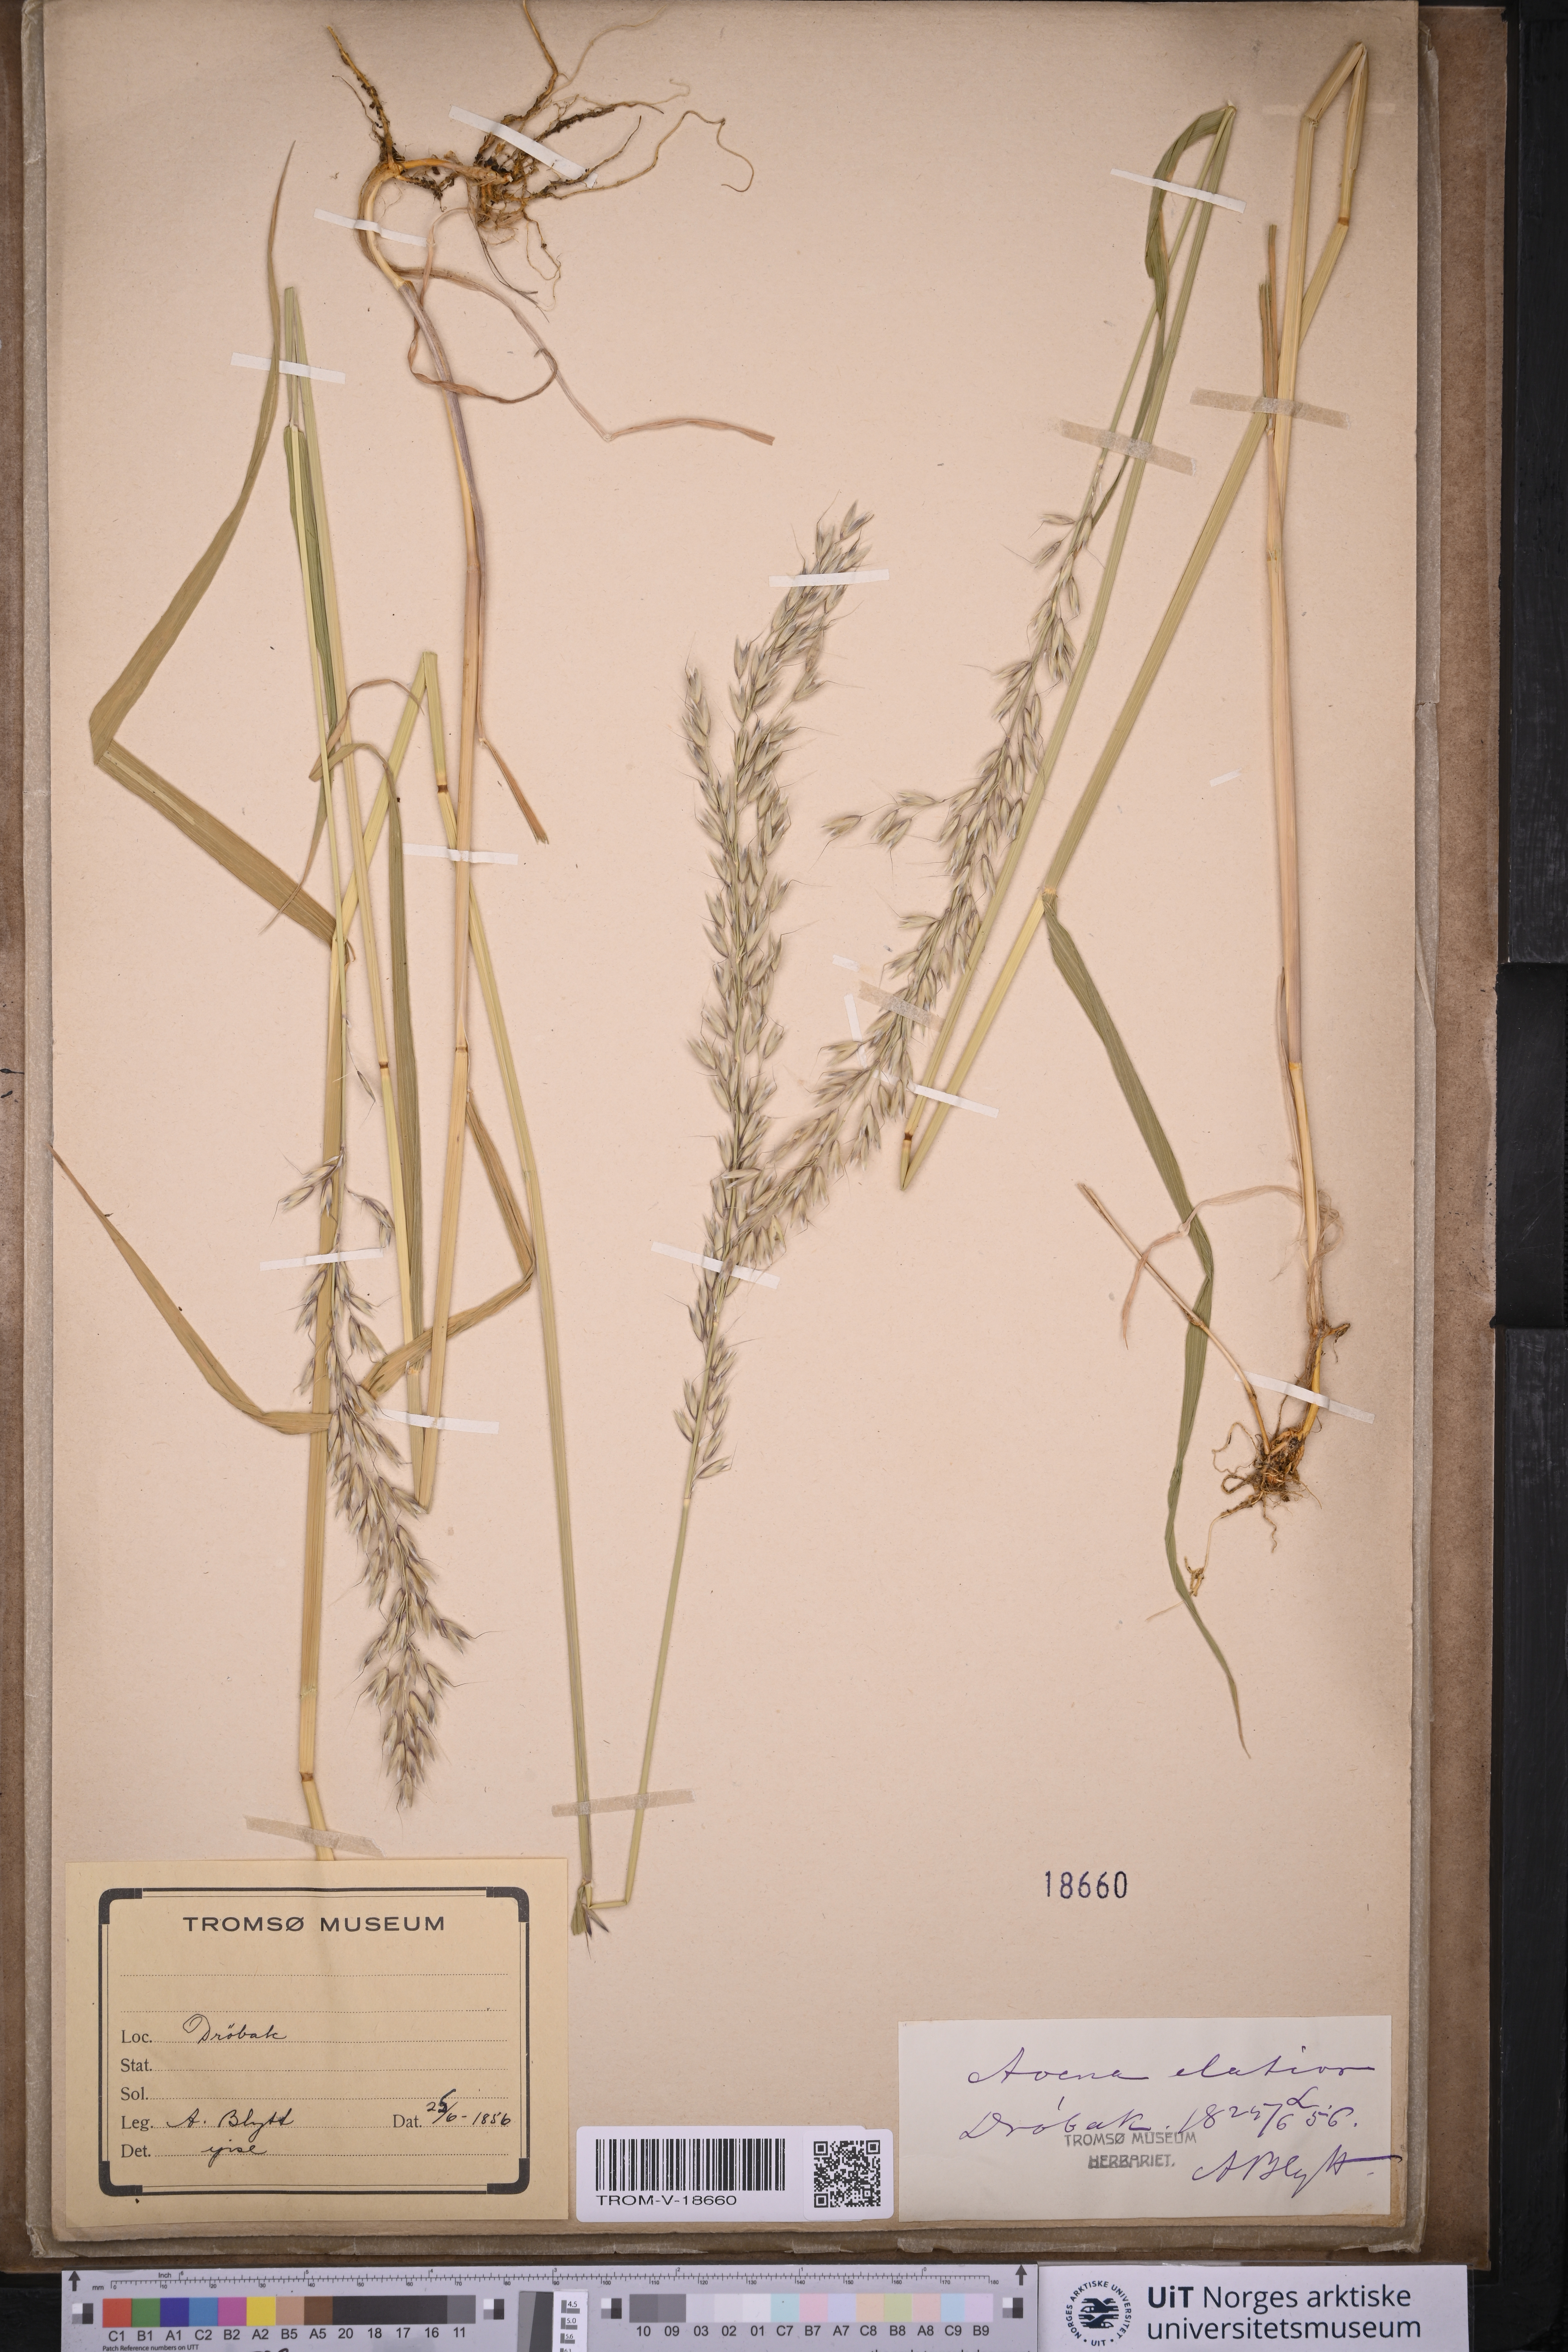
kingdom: Plantae
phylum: Tracheophyta
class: Liliopsida
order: Poales
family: Poaceae
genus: Arrhenatherum
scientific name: Arrhenatherum elatius
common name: Tall oatgrass
